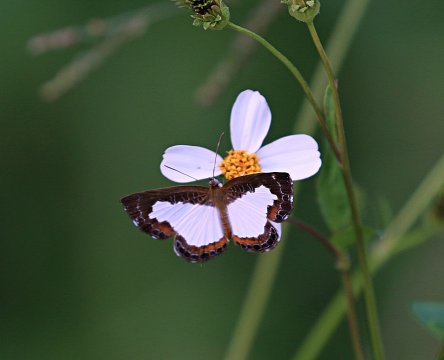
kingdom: Animalia
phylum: Arthropoda
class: Insecta
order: Lepidoptera
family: Riodinidae
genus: Juditha
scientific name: Juditha caucana
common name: Molpe Metalmark
